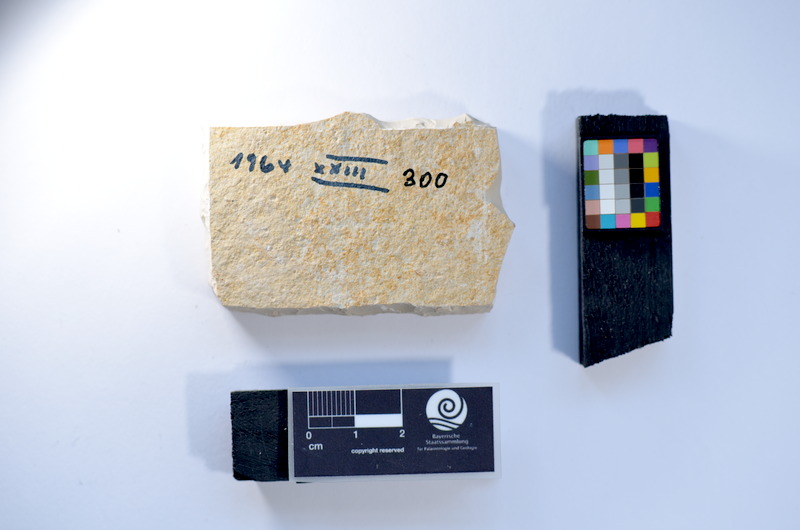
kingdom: Animalia
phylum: Chordata
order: Salmoniformes
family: Orthogonikleithridae
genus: Leptolepides
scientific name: Leptolepides
